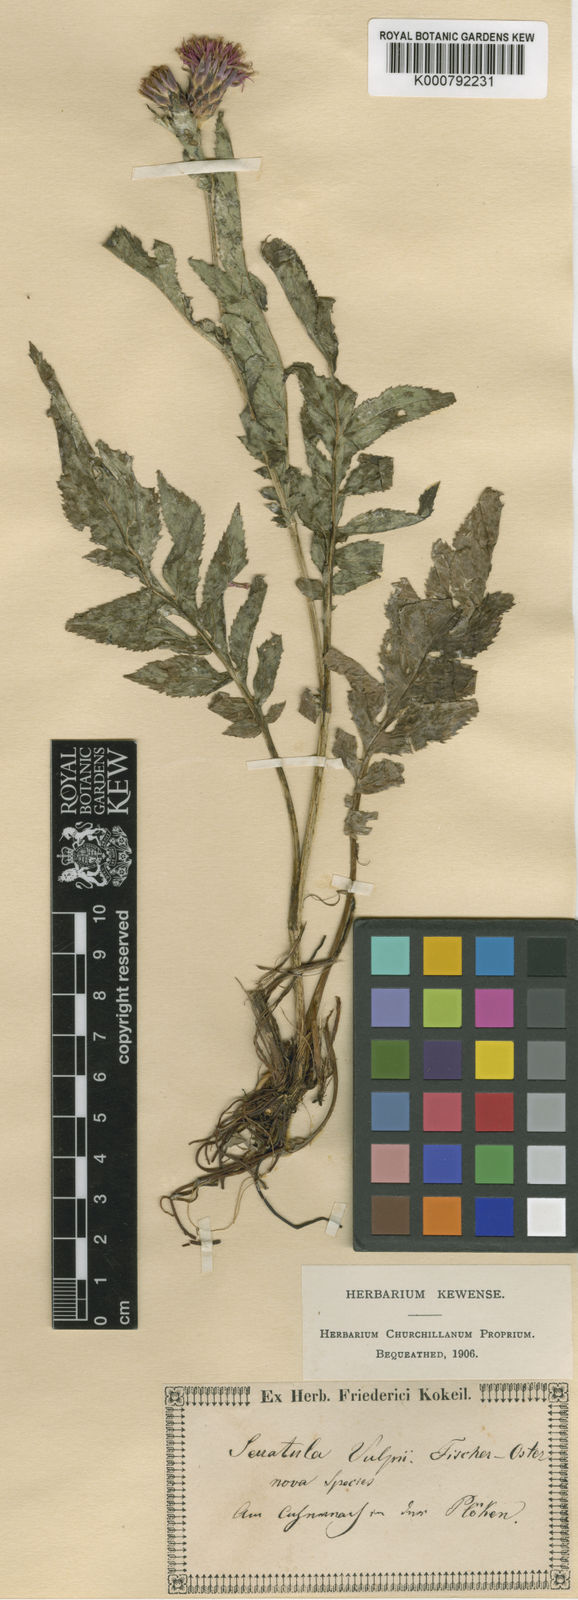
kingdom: Plantae
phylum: Tracheophyta
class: Magnoliopsida
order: Asterales
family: Asteraceae
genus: Serratula
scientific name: Serratula
